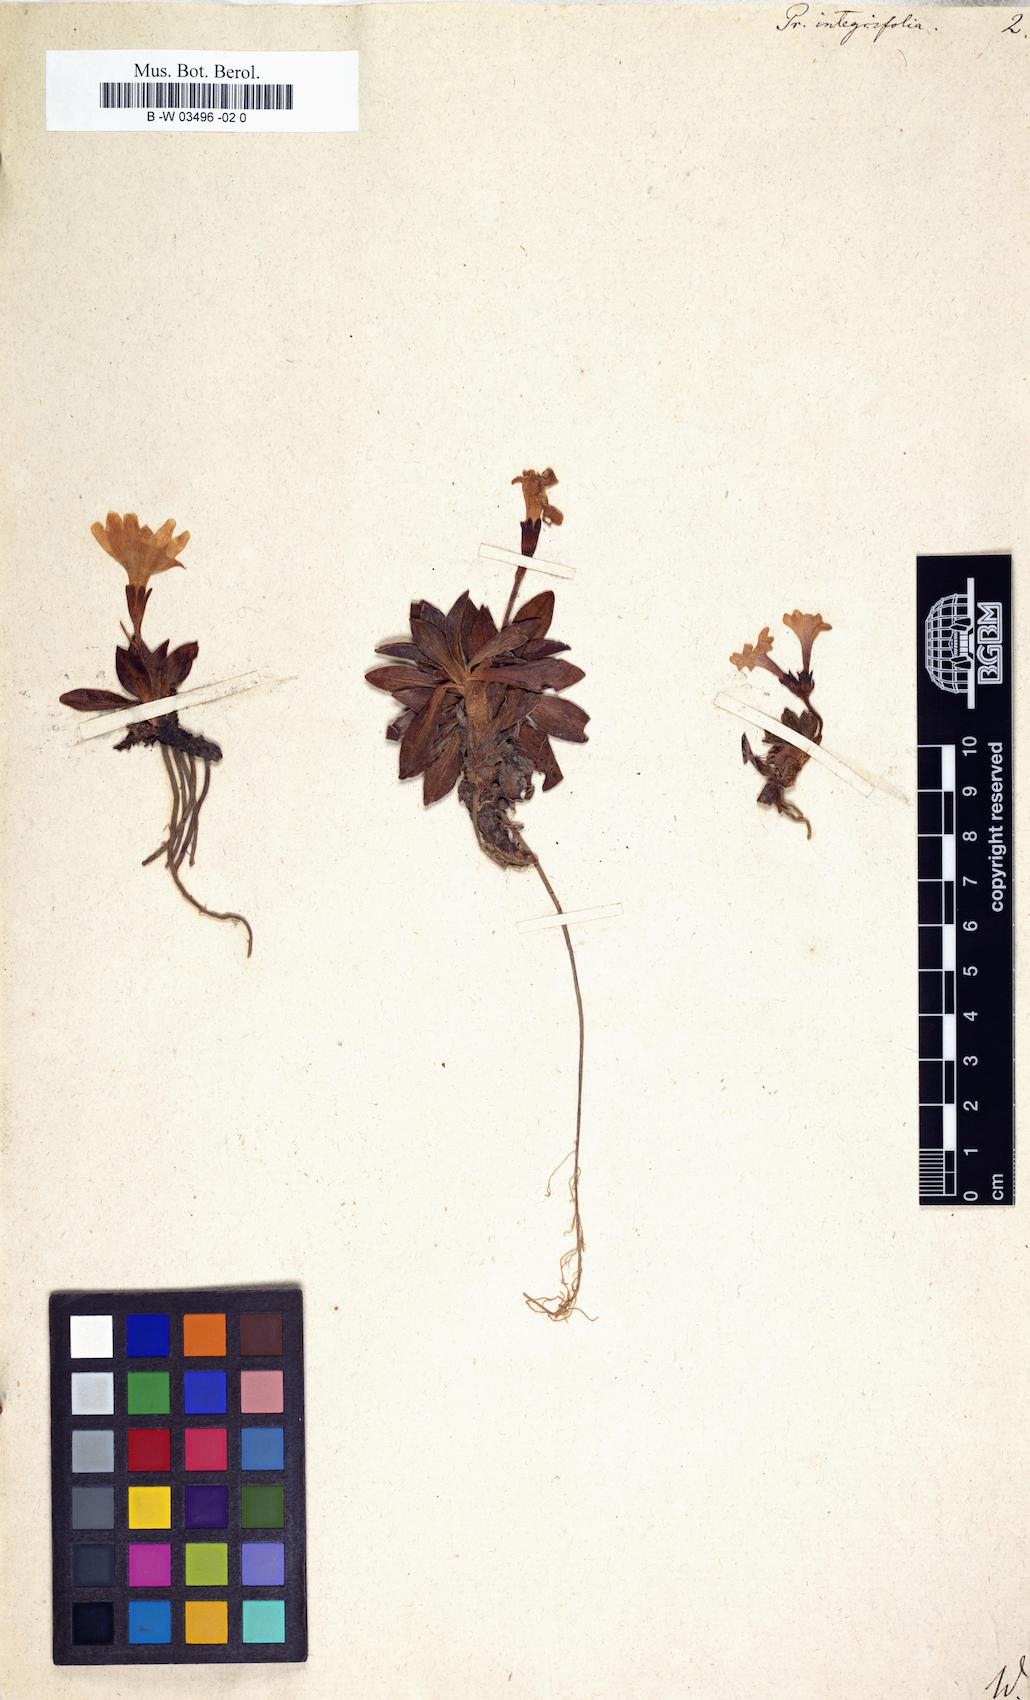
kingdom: Plantae
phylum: Tracheophyta
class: Magnoliopsida
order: Ericales
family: Primulaceae
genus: Primula
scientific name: Primula integrifolia
